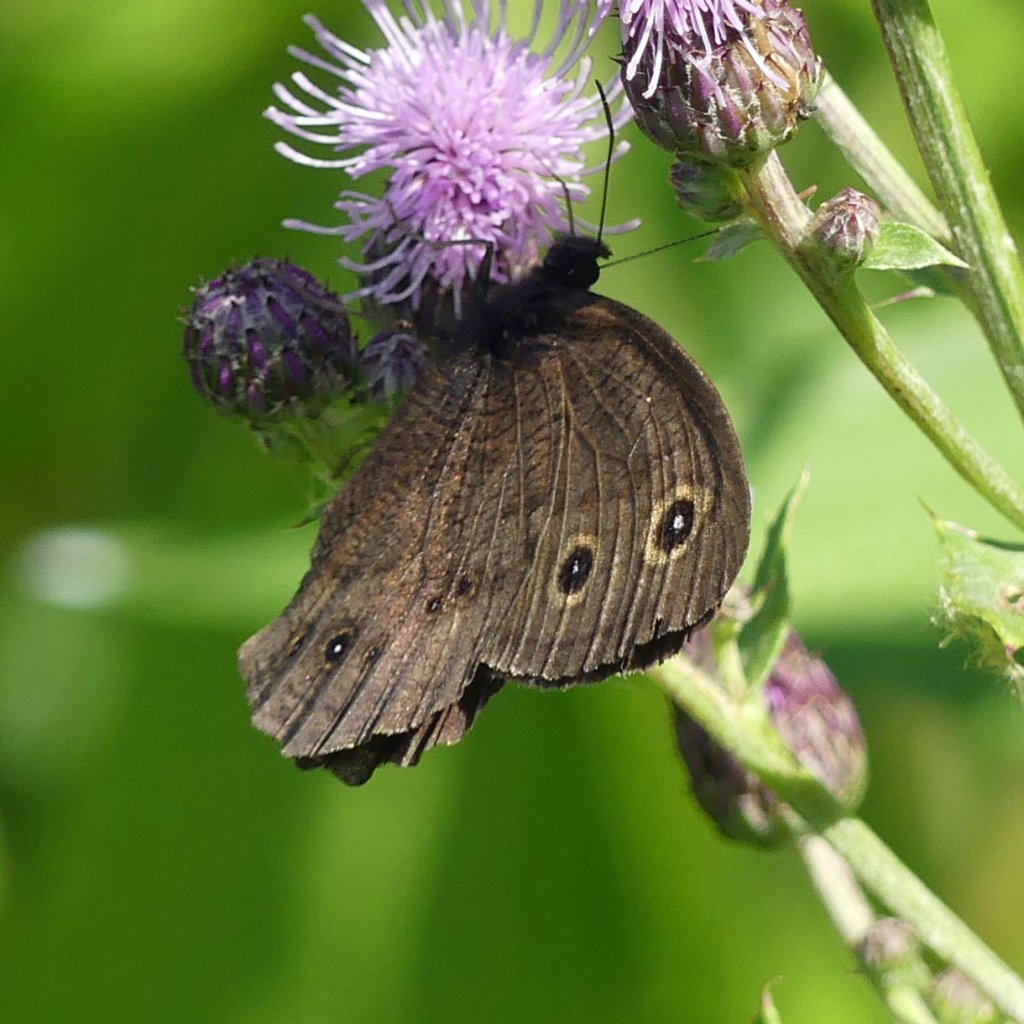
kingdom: Animalia
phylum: Arthropoda
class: Insecta
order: Lepidoptera
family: Nymphalidae
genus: Cercyonis
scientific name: Cercyonis pegala
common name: Common Wood-Nymph
